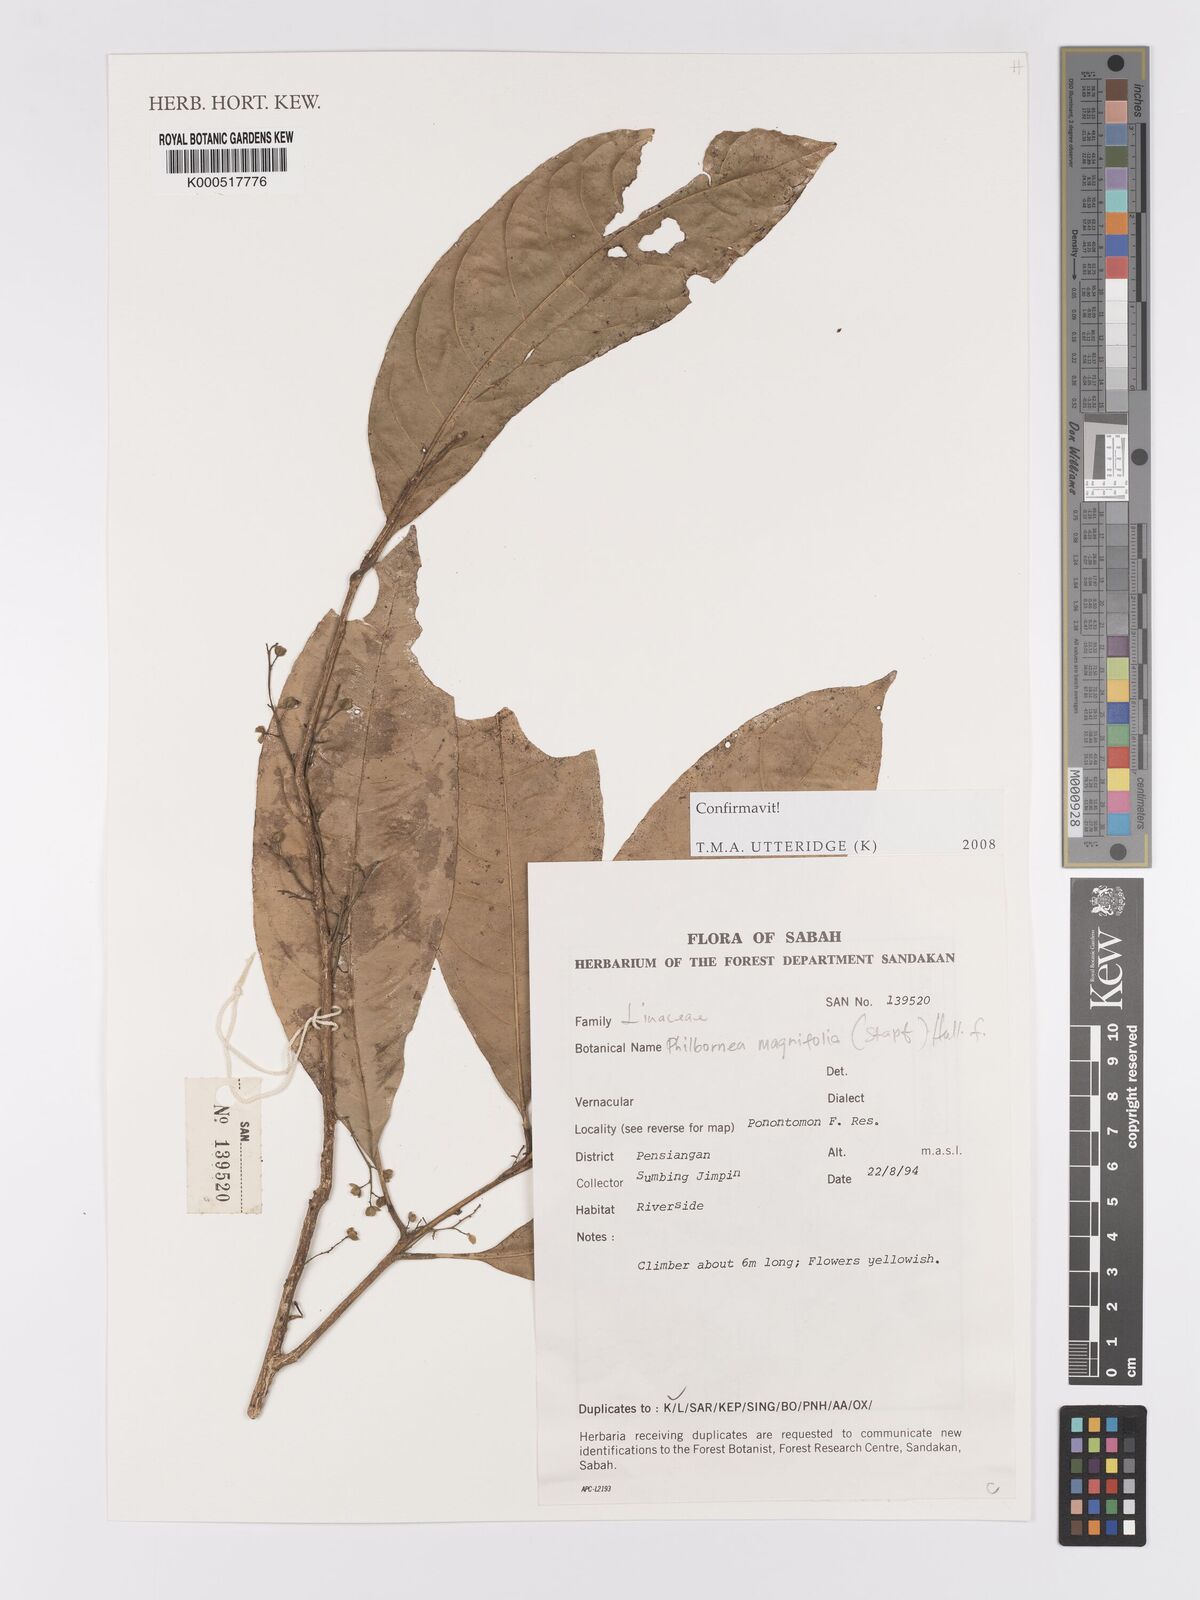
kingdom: Plantae
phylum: Tracheophyta
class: Magnoliopsida
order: Malpighiales
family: Linaceae
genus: Philbornea
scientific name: Philbornea magnifolia
